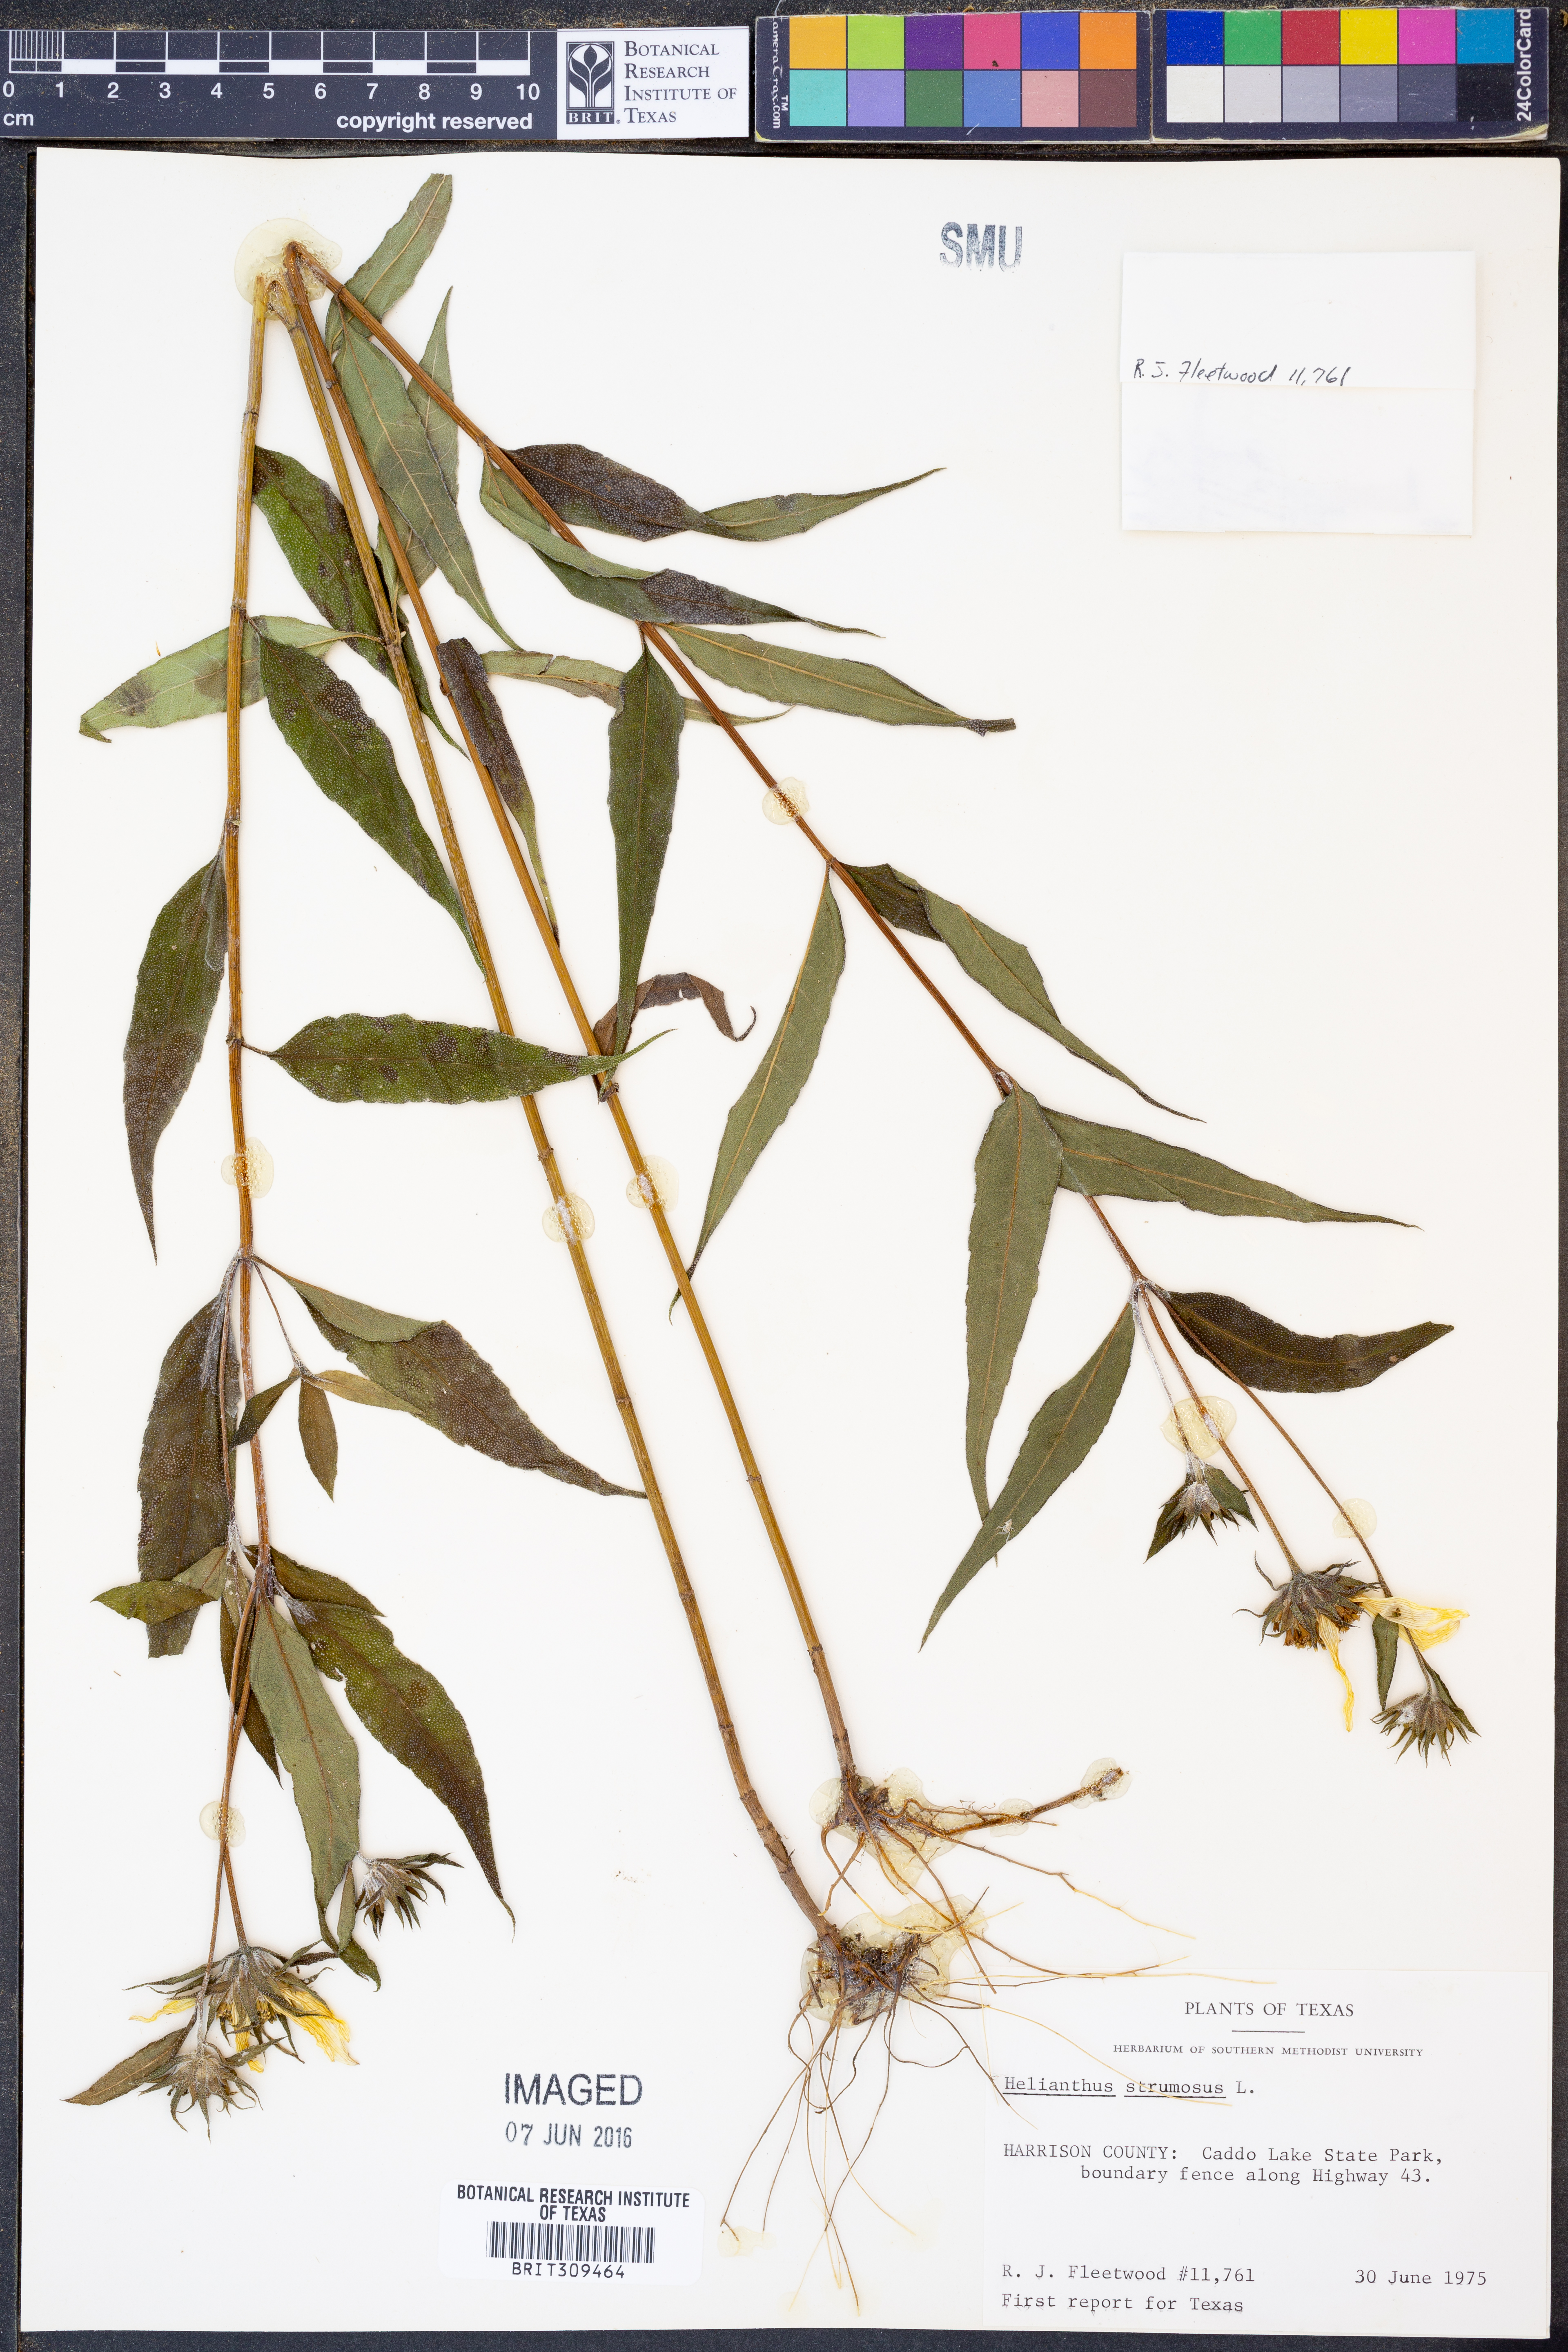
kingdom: Plantae
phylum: Tracheophyta
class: Magnoliopsida
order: Asterales
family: Asteraceae
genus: Helianthus
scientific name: Helianthus strumosus
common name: Pale-leaved sunflower
